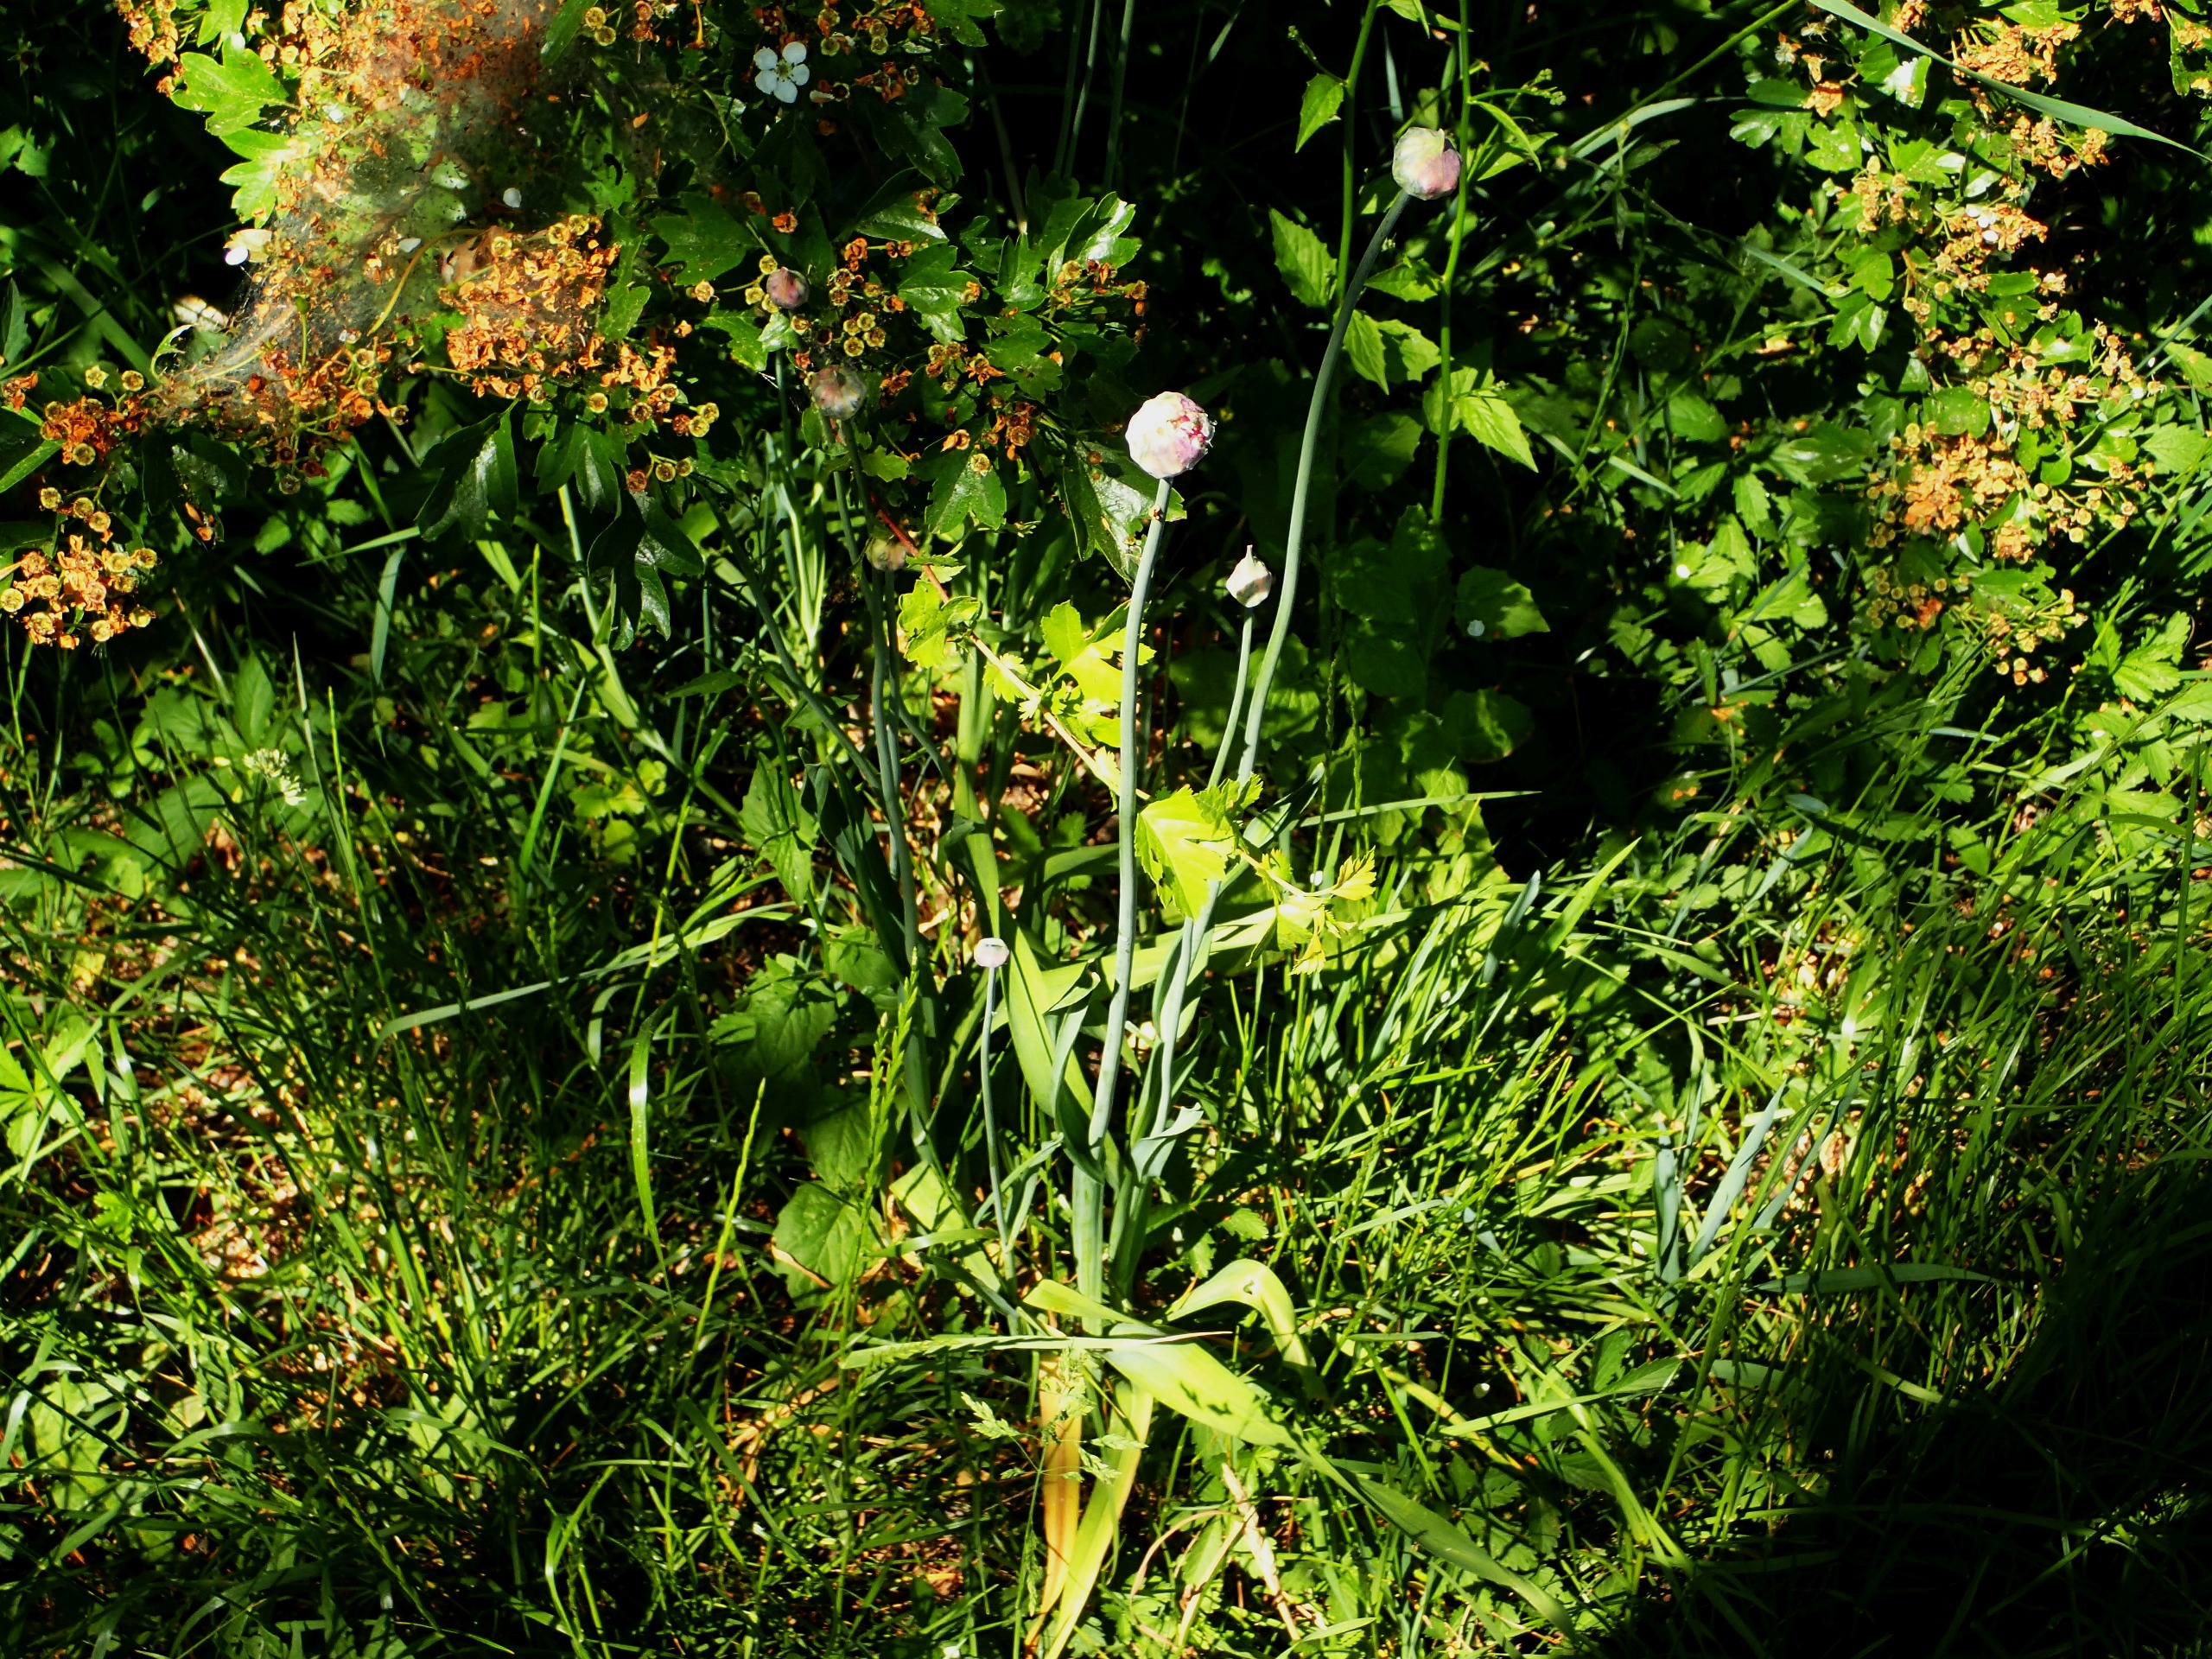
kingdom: Plantae
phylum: Tracheophyta
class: Liliopsida
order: Asparagales
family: Amaryllidaceae
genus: Allium
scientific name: Allium scorodoprasum
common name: Skov-løg
